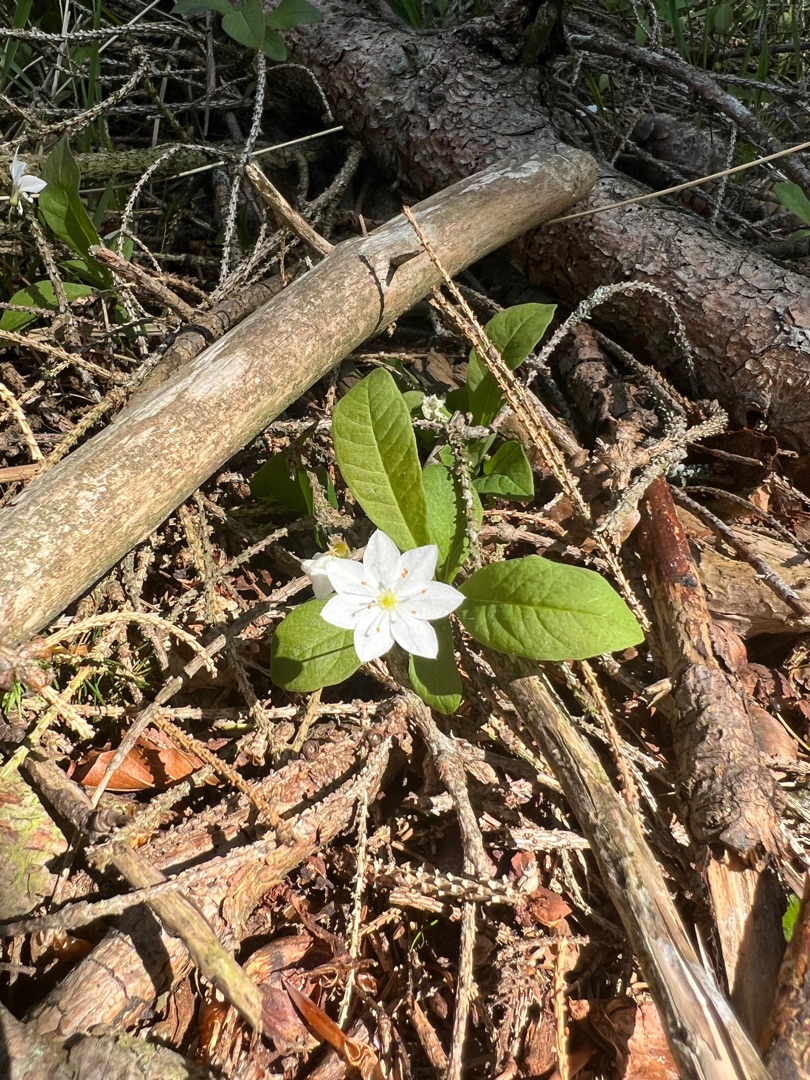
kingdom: Plantae
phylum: Tracheophyta
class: Magnoliopsida
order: Ericales
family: Primulaceae
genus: Lysimachia
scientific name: Lysimachia europaea
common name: Skovstjerne
